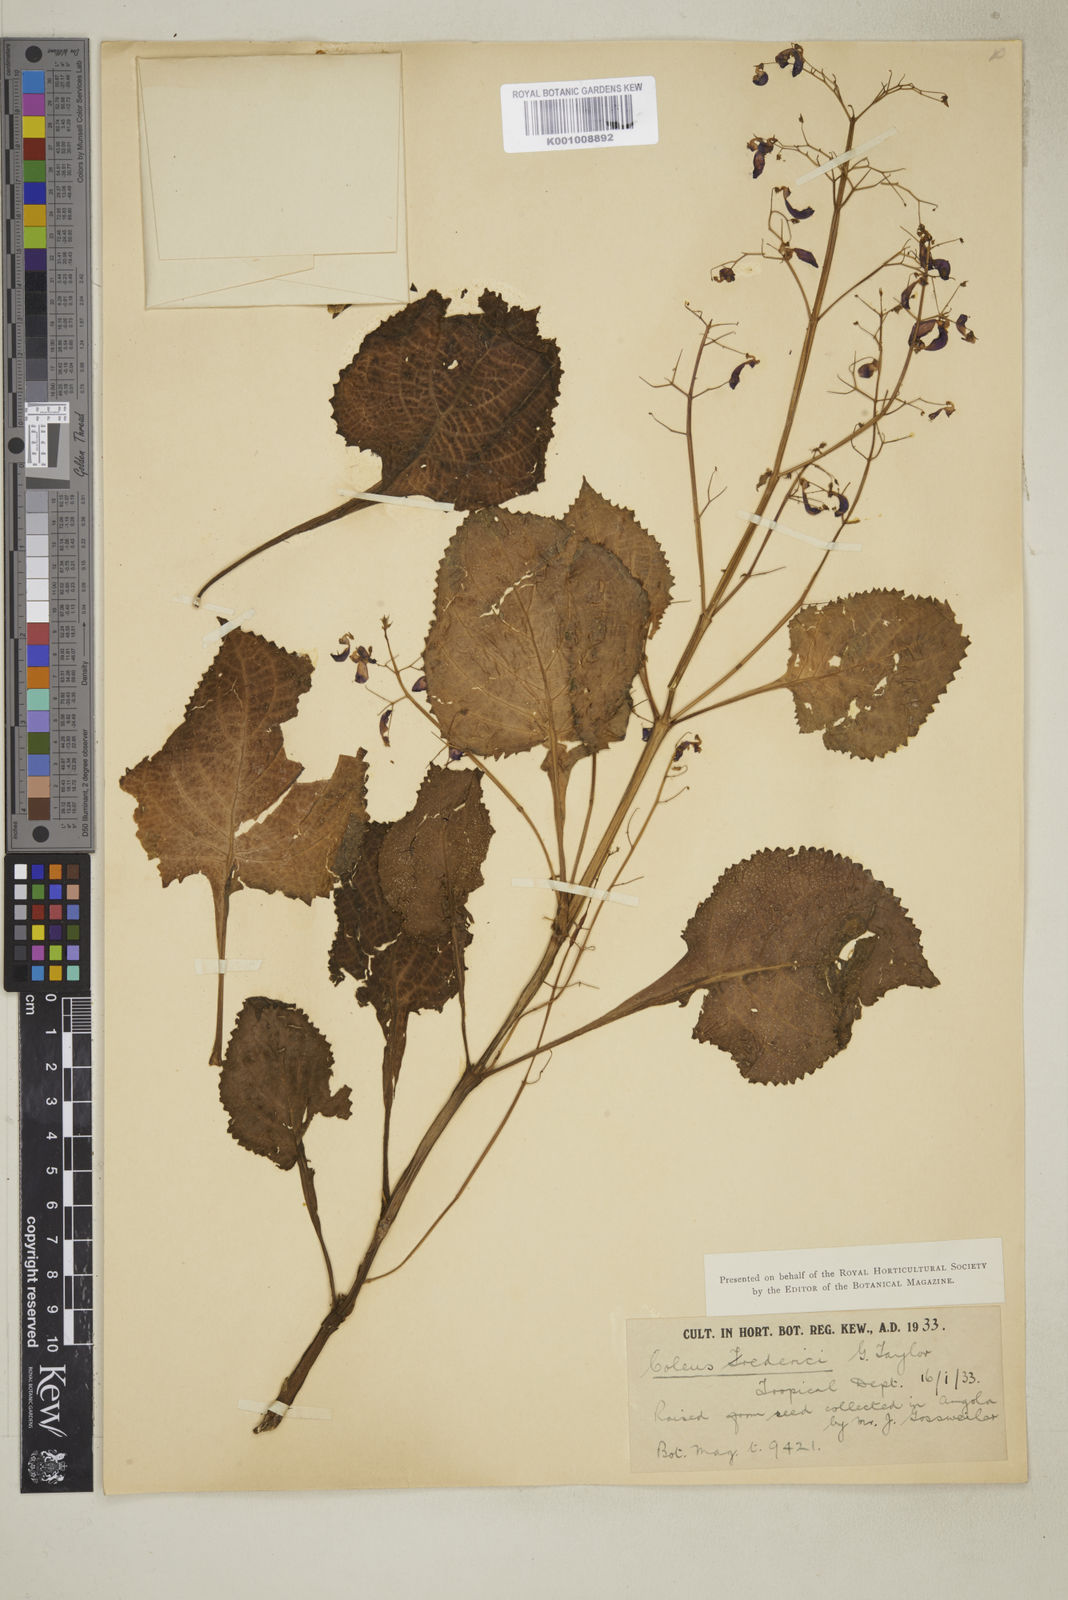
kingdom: Plantae
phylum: Tracheophyta
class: Magnoliopsida
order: Lamiales
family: Lamiaceae
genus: Plectranthus
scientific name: Plectranthus
